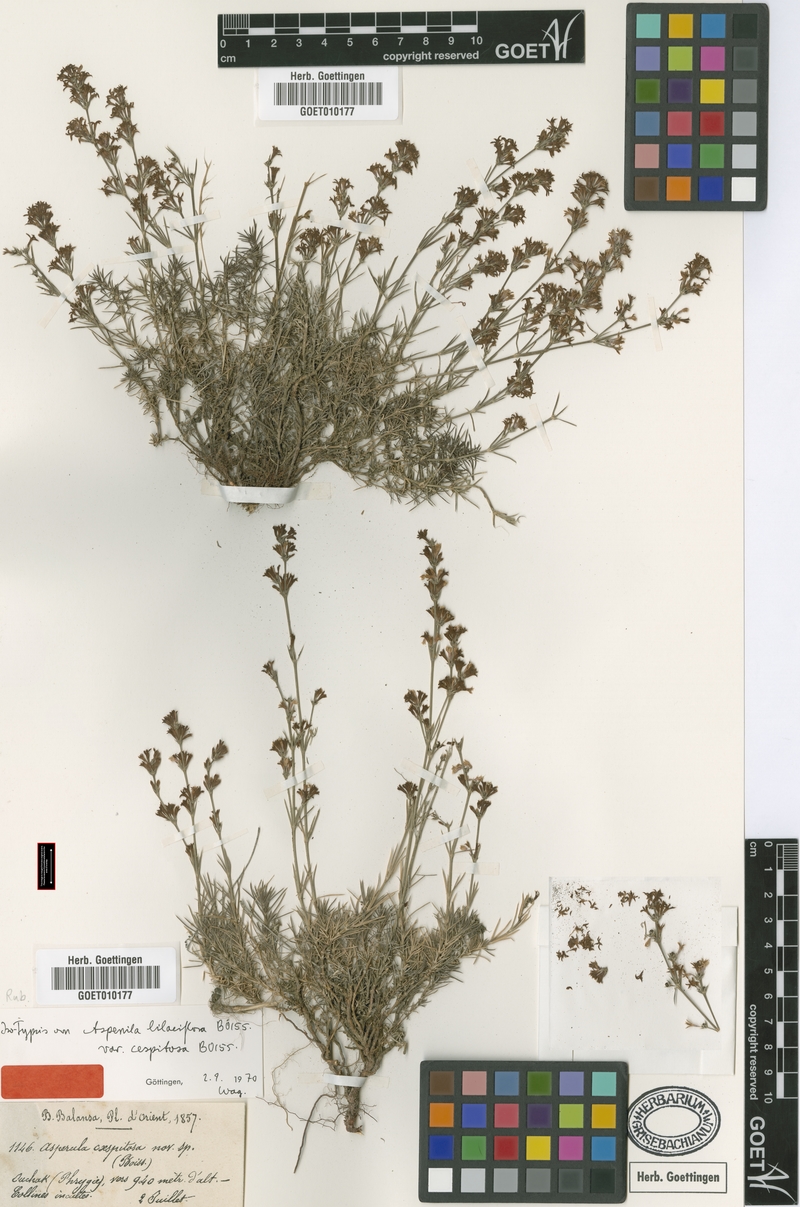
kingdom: Plantae
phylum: Tracheophyta
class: Magnoliopsida
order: Gentianales
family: Rubiaceae
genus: Cynanchica
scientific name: Cynanchica lilaciflora
